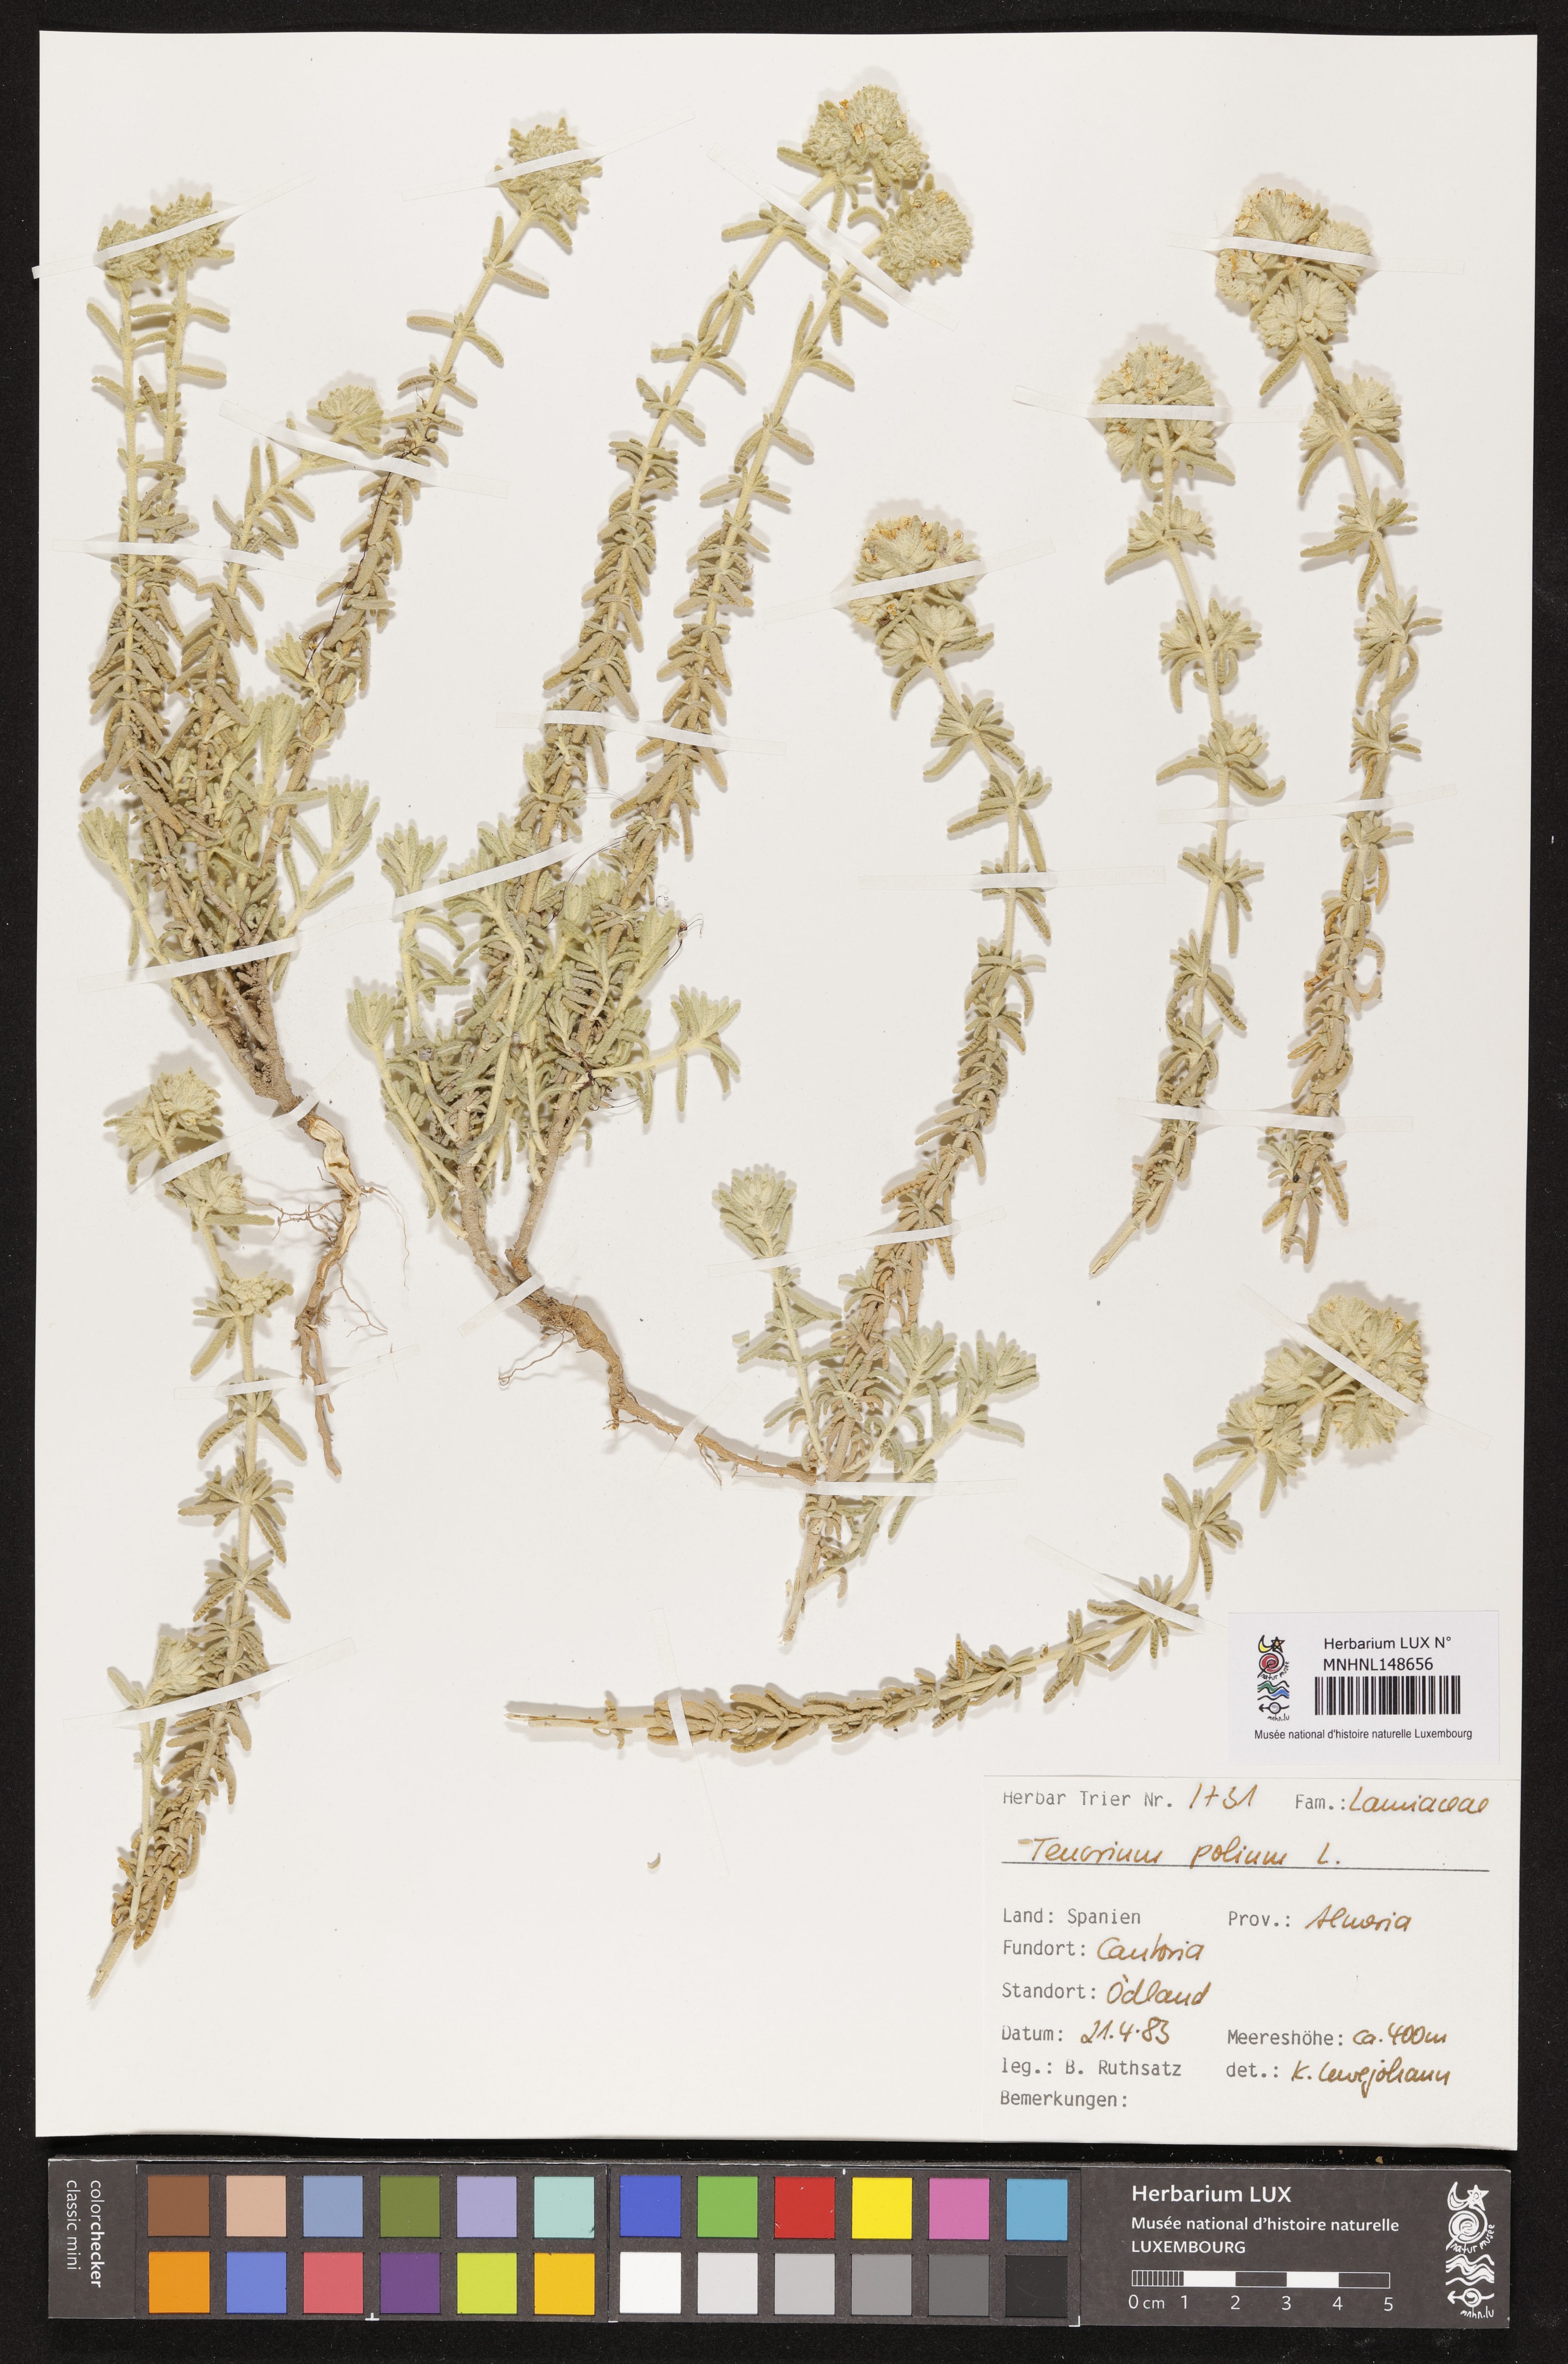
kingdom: Plantae
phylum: Tracheophyta
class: Magnoliopsida
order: Lamiales
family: Lamiaceae
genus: Teucrium
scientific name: Teucrium polium
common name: Poley
